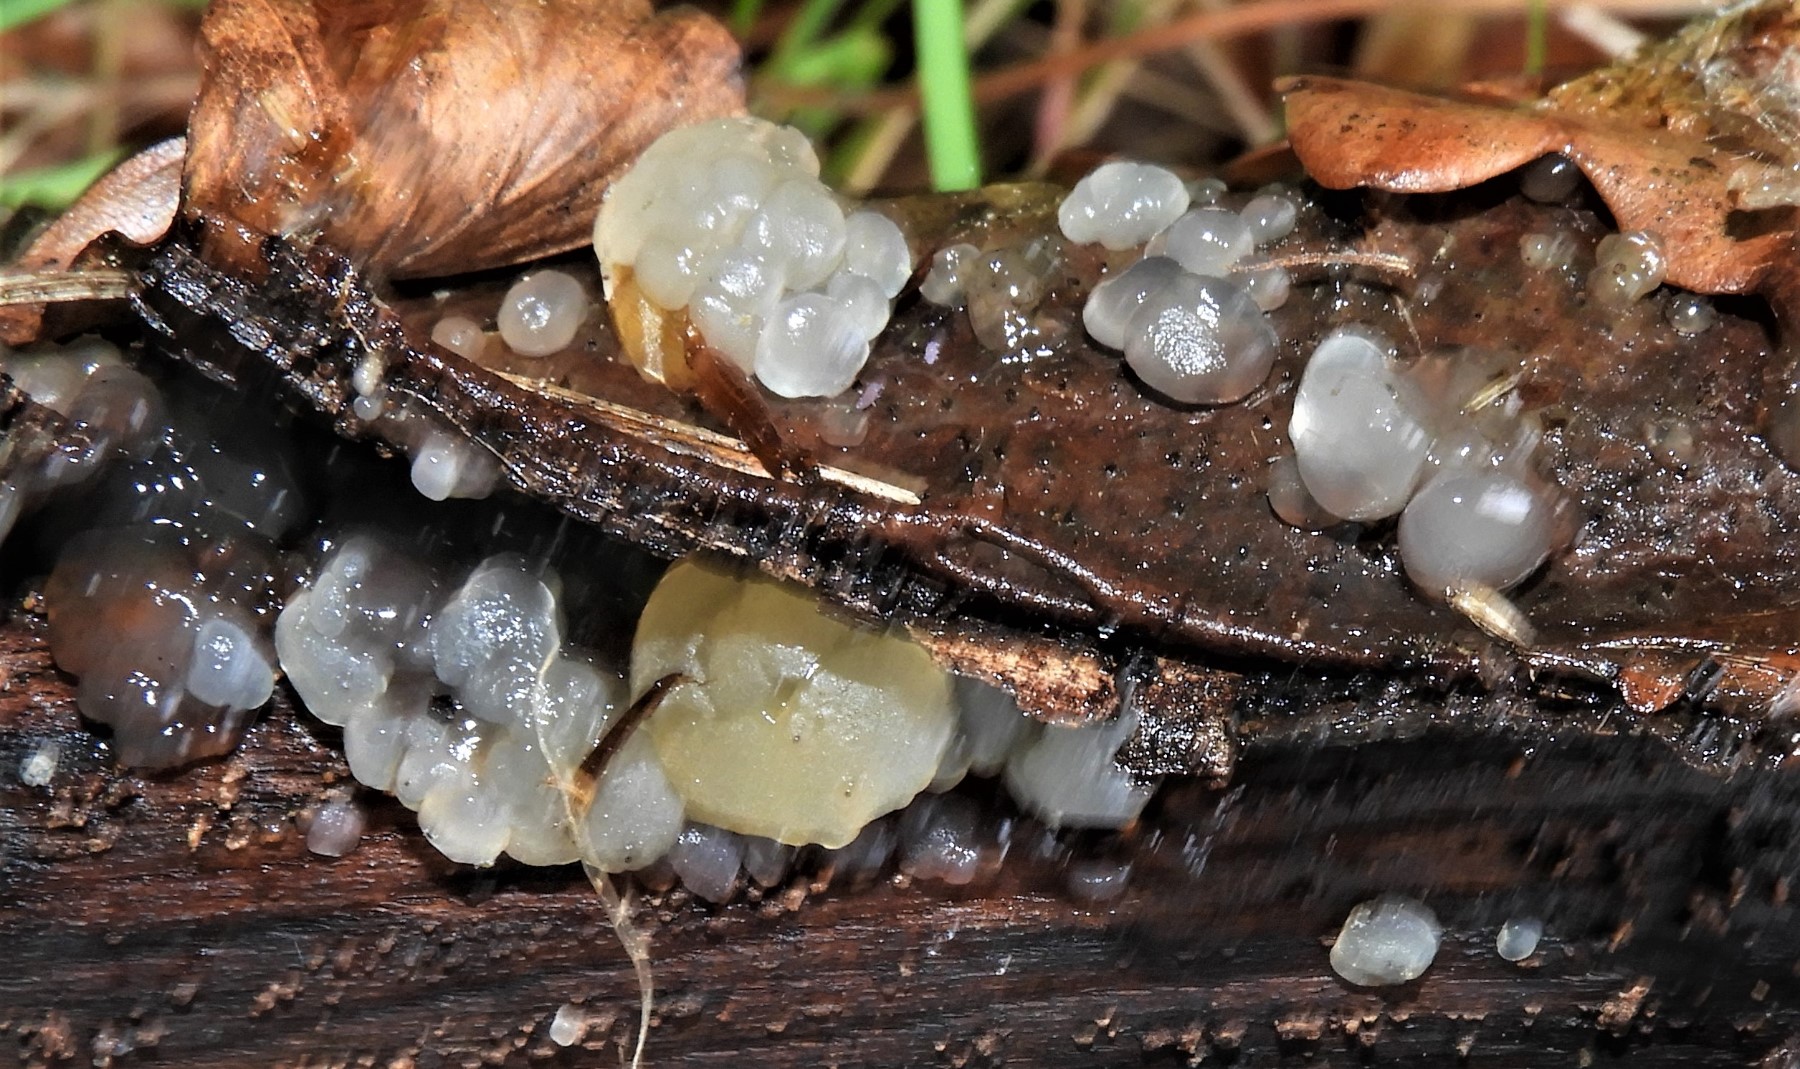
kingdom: Fungi
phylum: Basidiomycota
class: Agaricomycetes
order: Auriculariales
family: Hyaloriaceae
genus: Myxarium
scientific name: Myxarium nucleatum
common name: klar bævretop
